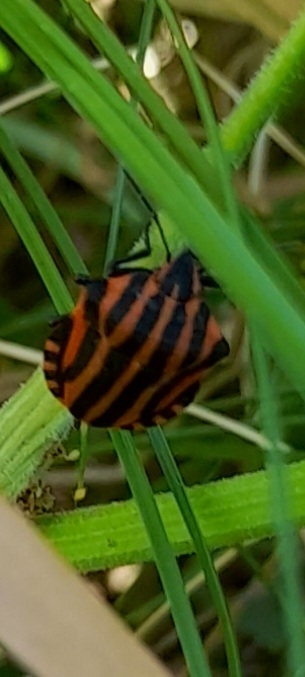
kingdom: Animalia
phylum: Arthropoda
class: Insecta
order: Hemiptera
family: Pentatomidae
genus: Graphosoma
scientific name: Graphosoma italicum
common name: Stribetæge
